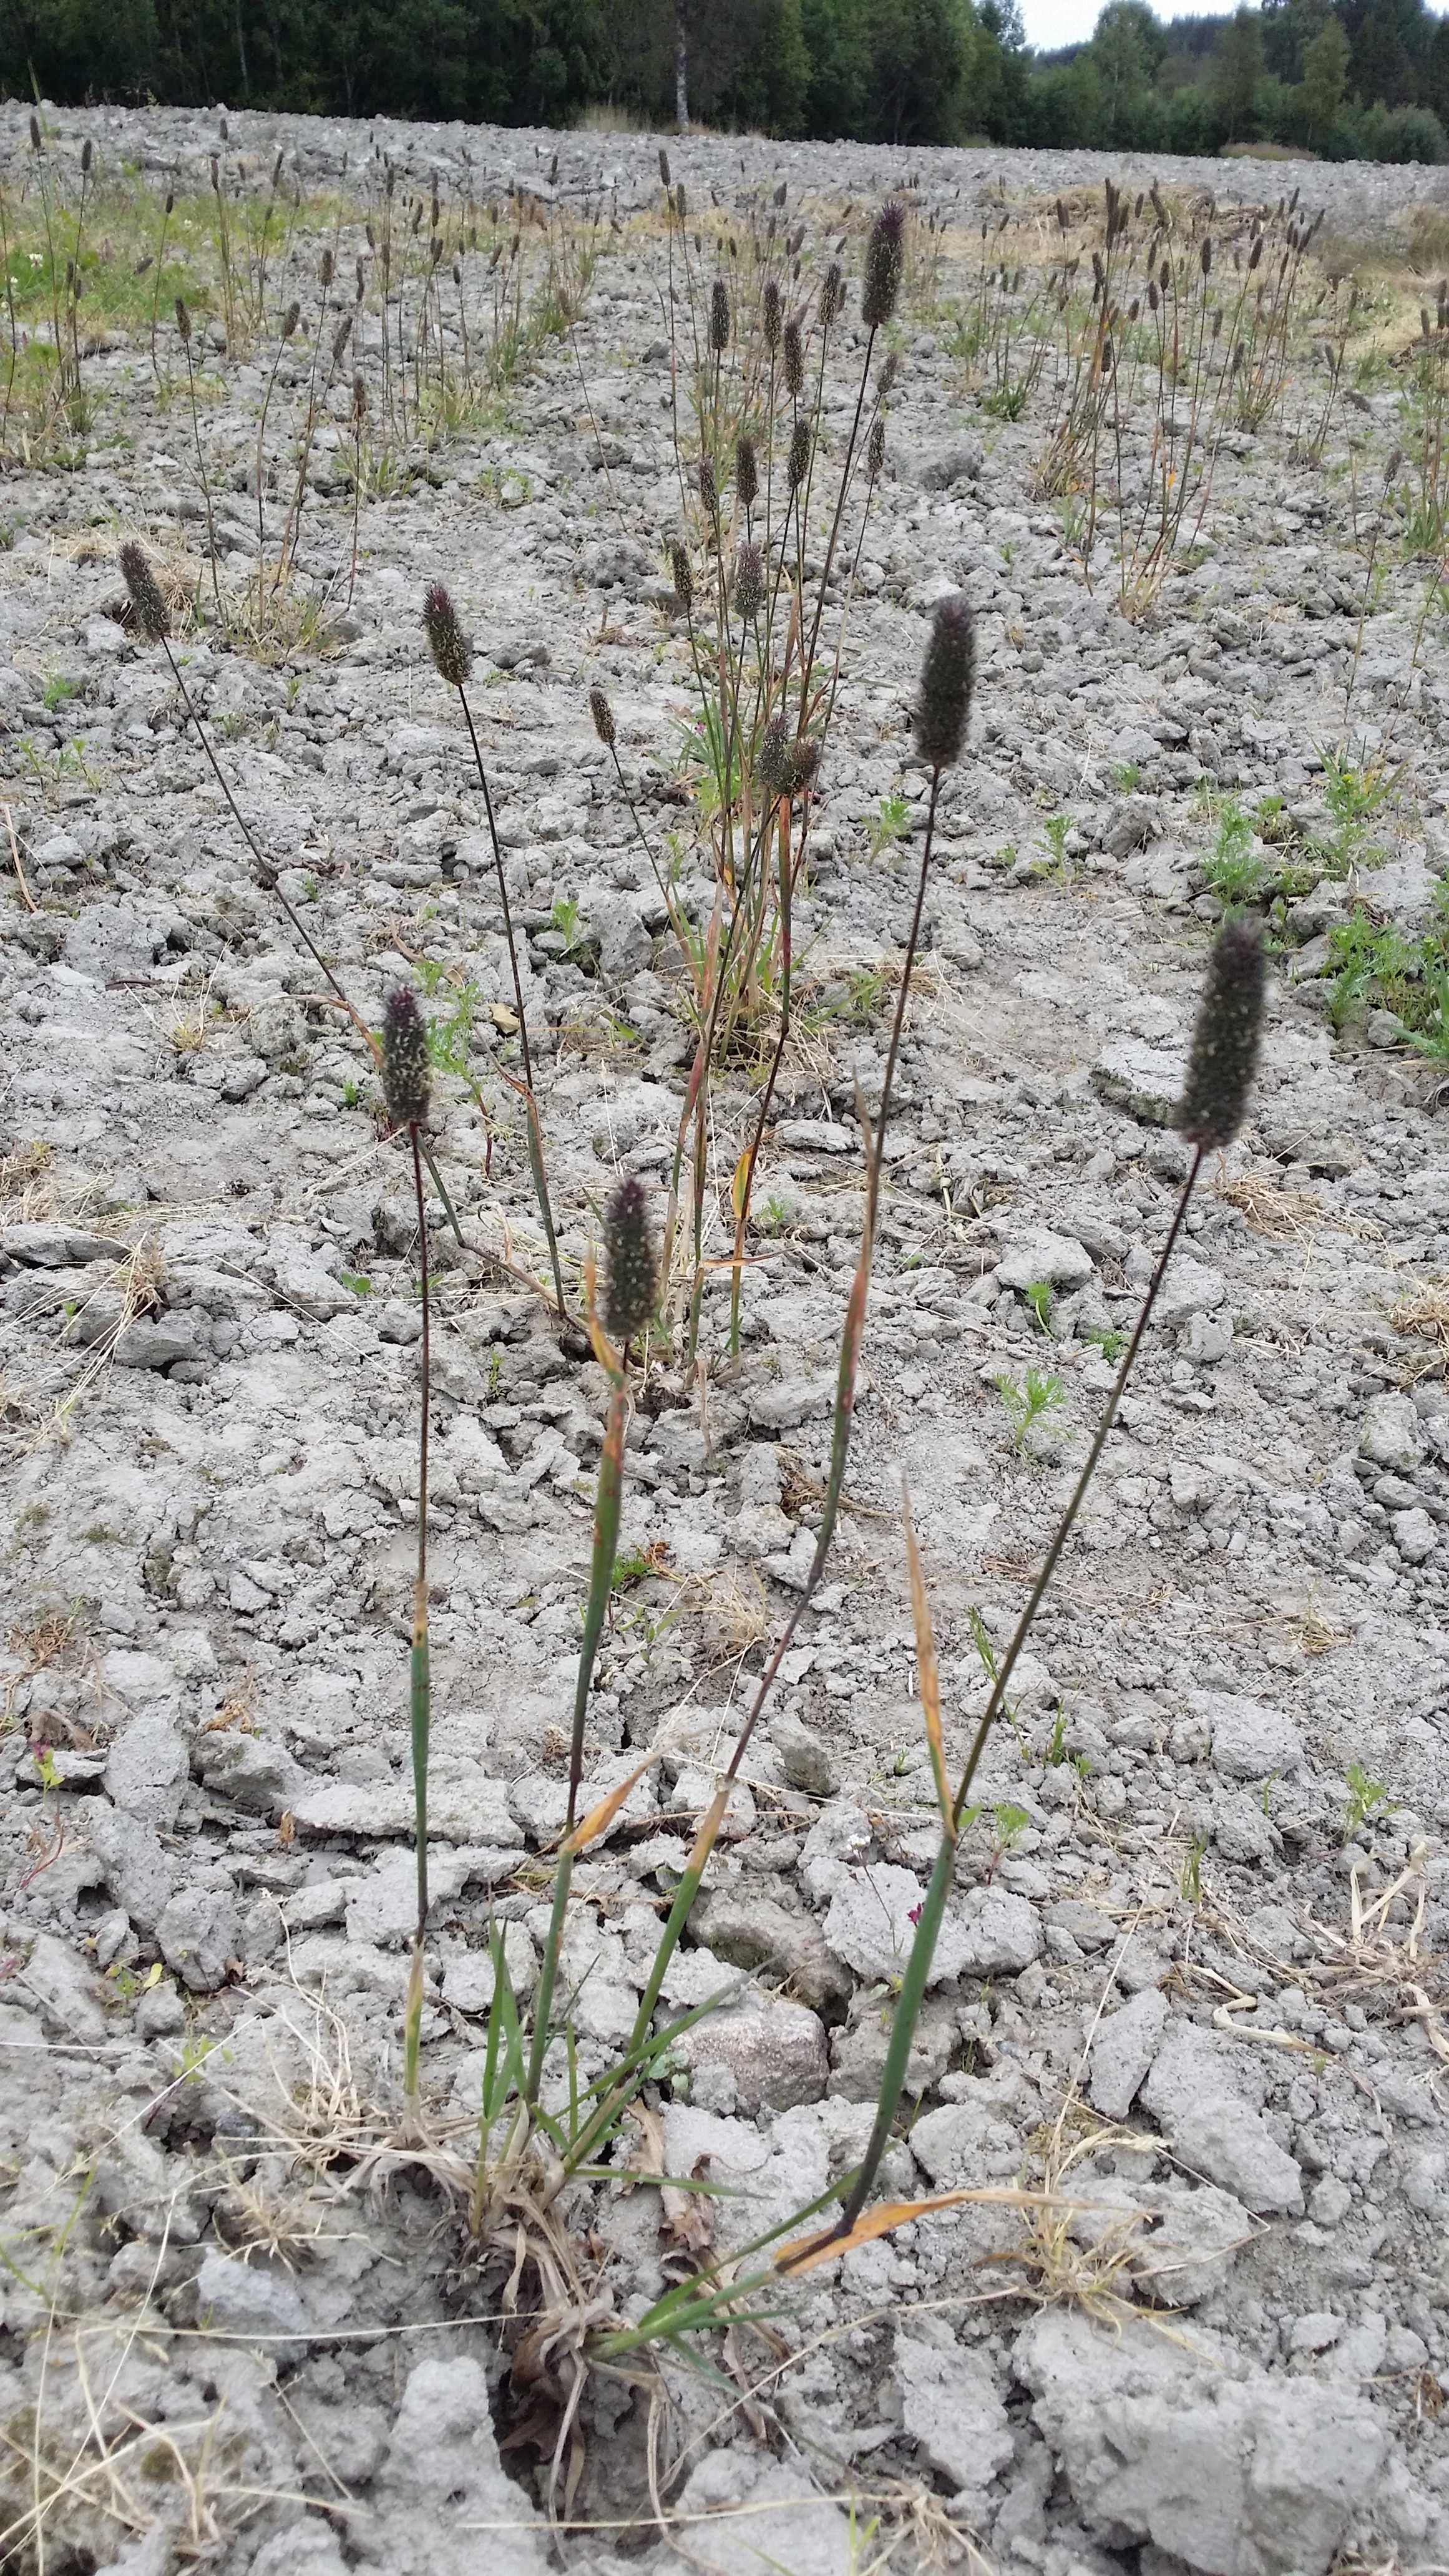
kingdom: Plantae
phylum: Tracheophyta
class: Liliopsida
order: Poales
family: Poaceae
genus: Phleum
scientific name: Phleum alpinum
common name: Alpine cat's-tail
